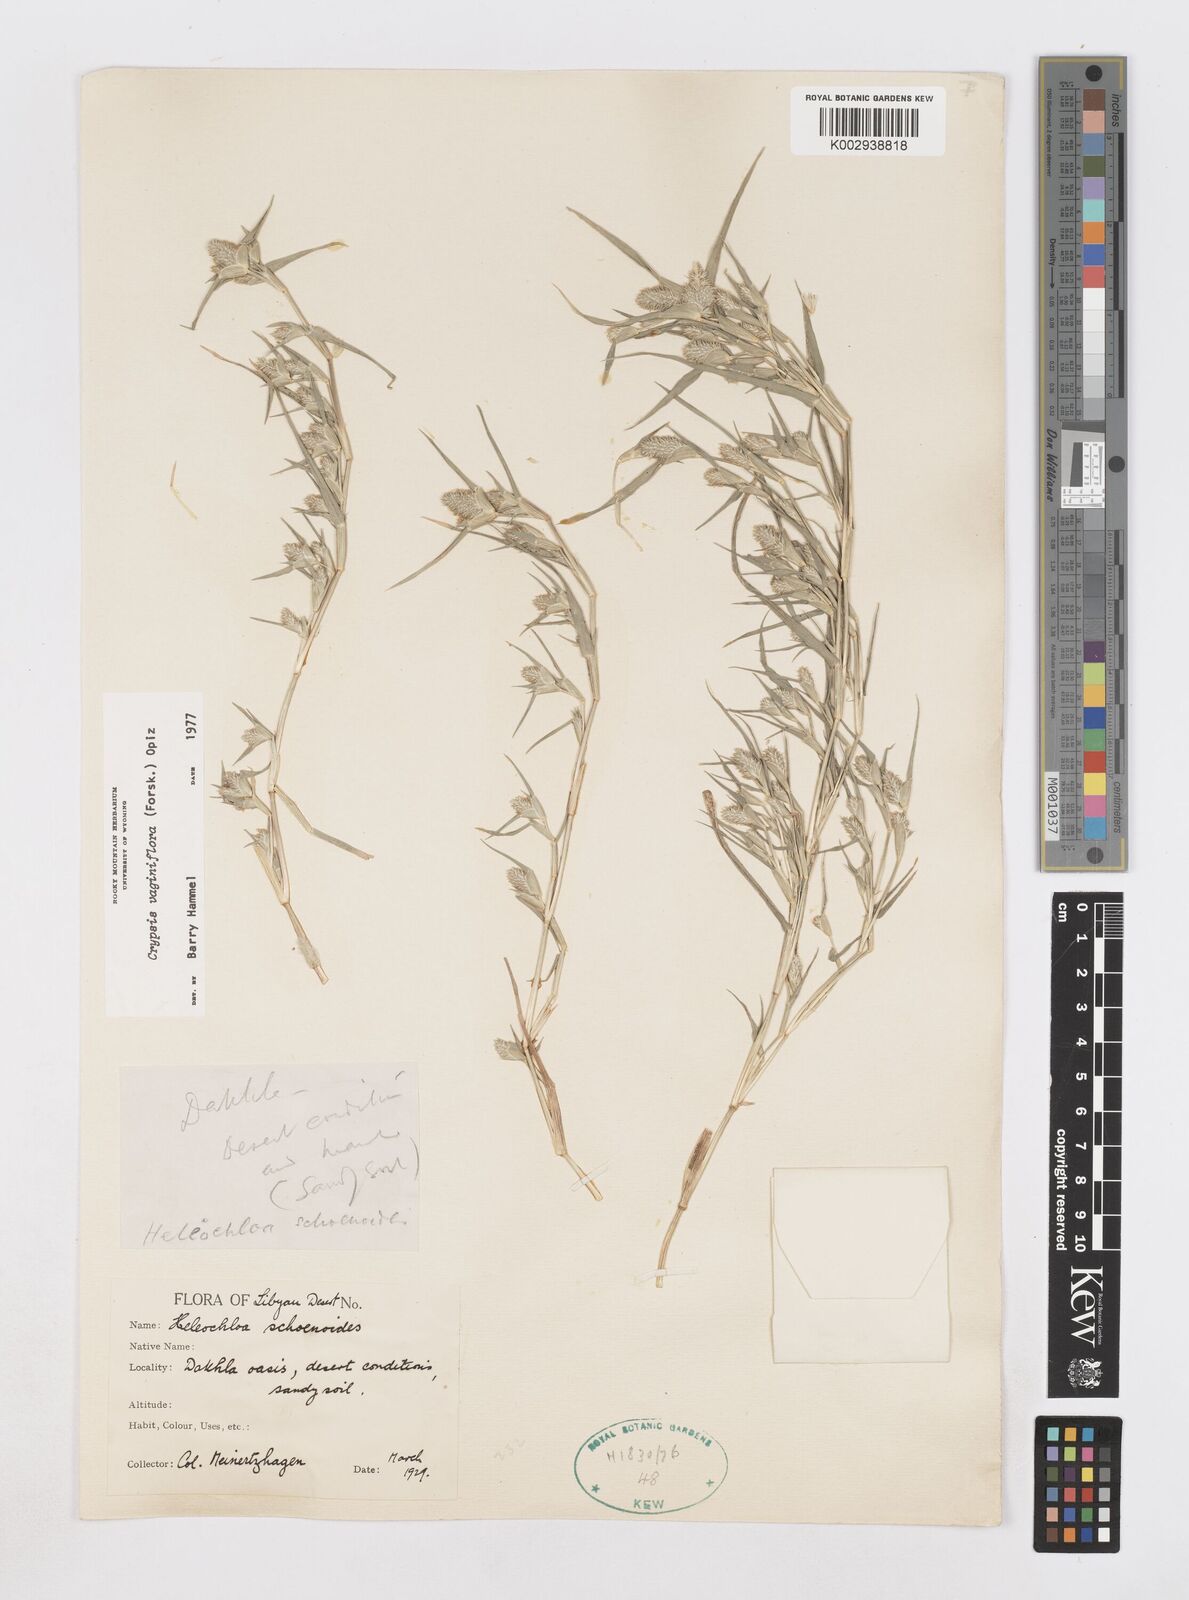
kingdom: Plantae
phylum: Tracheophyta
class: Liliopsida
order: Poales
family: Poaceae
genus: Sporobolus
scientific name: Sporobolus niliacus
